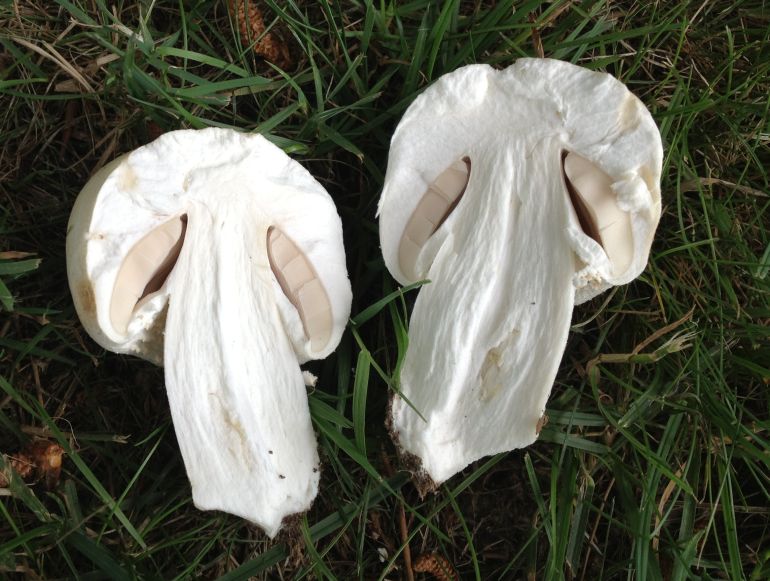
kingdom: Fungi
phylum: Basidiomycota
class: Agaricomycetes
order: Agaricales
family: Agaricaceae
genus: Agaricus
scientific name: Agaricus arvensis
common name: ager-champignon
